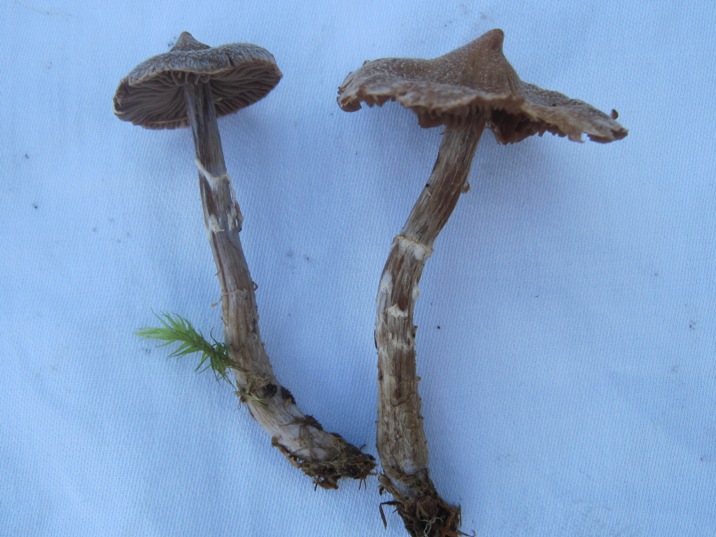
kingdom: Fungi
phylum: Basidiomycota
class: Agaricomycetes
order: Agaricales
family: Cortinariaceae
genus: Cortinarius
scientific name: Cortinarius
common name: pelargonie-slørhat
